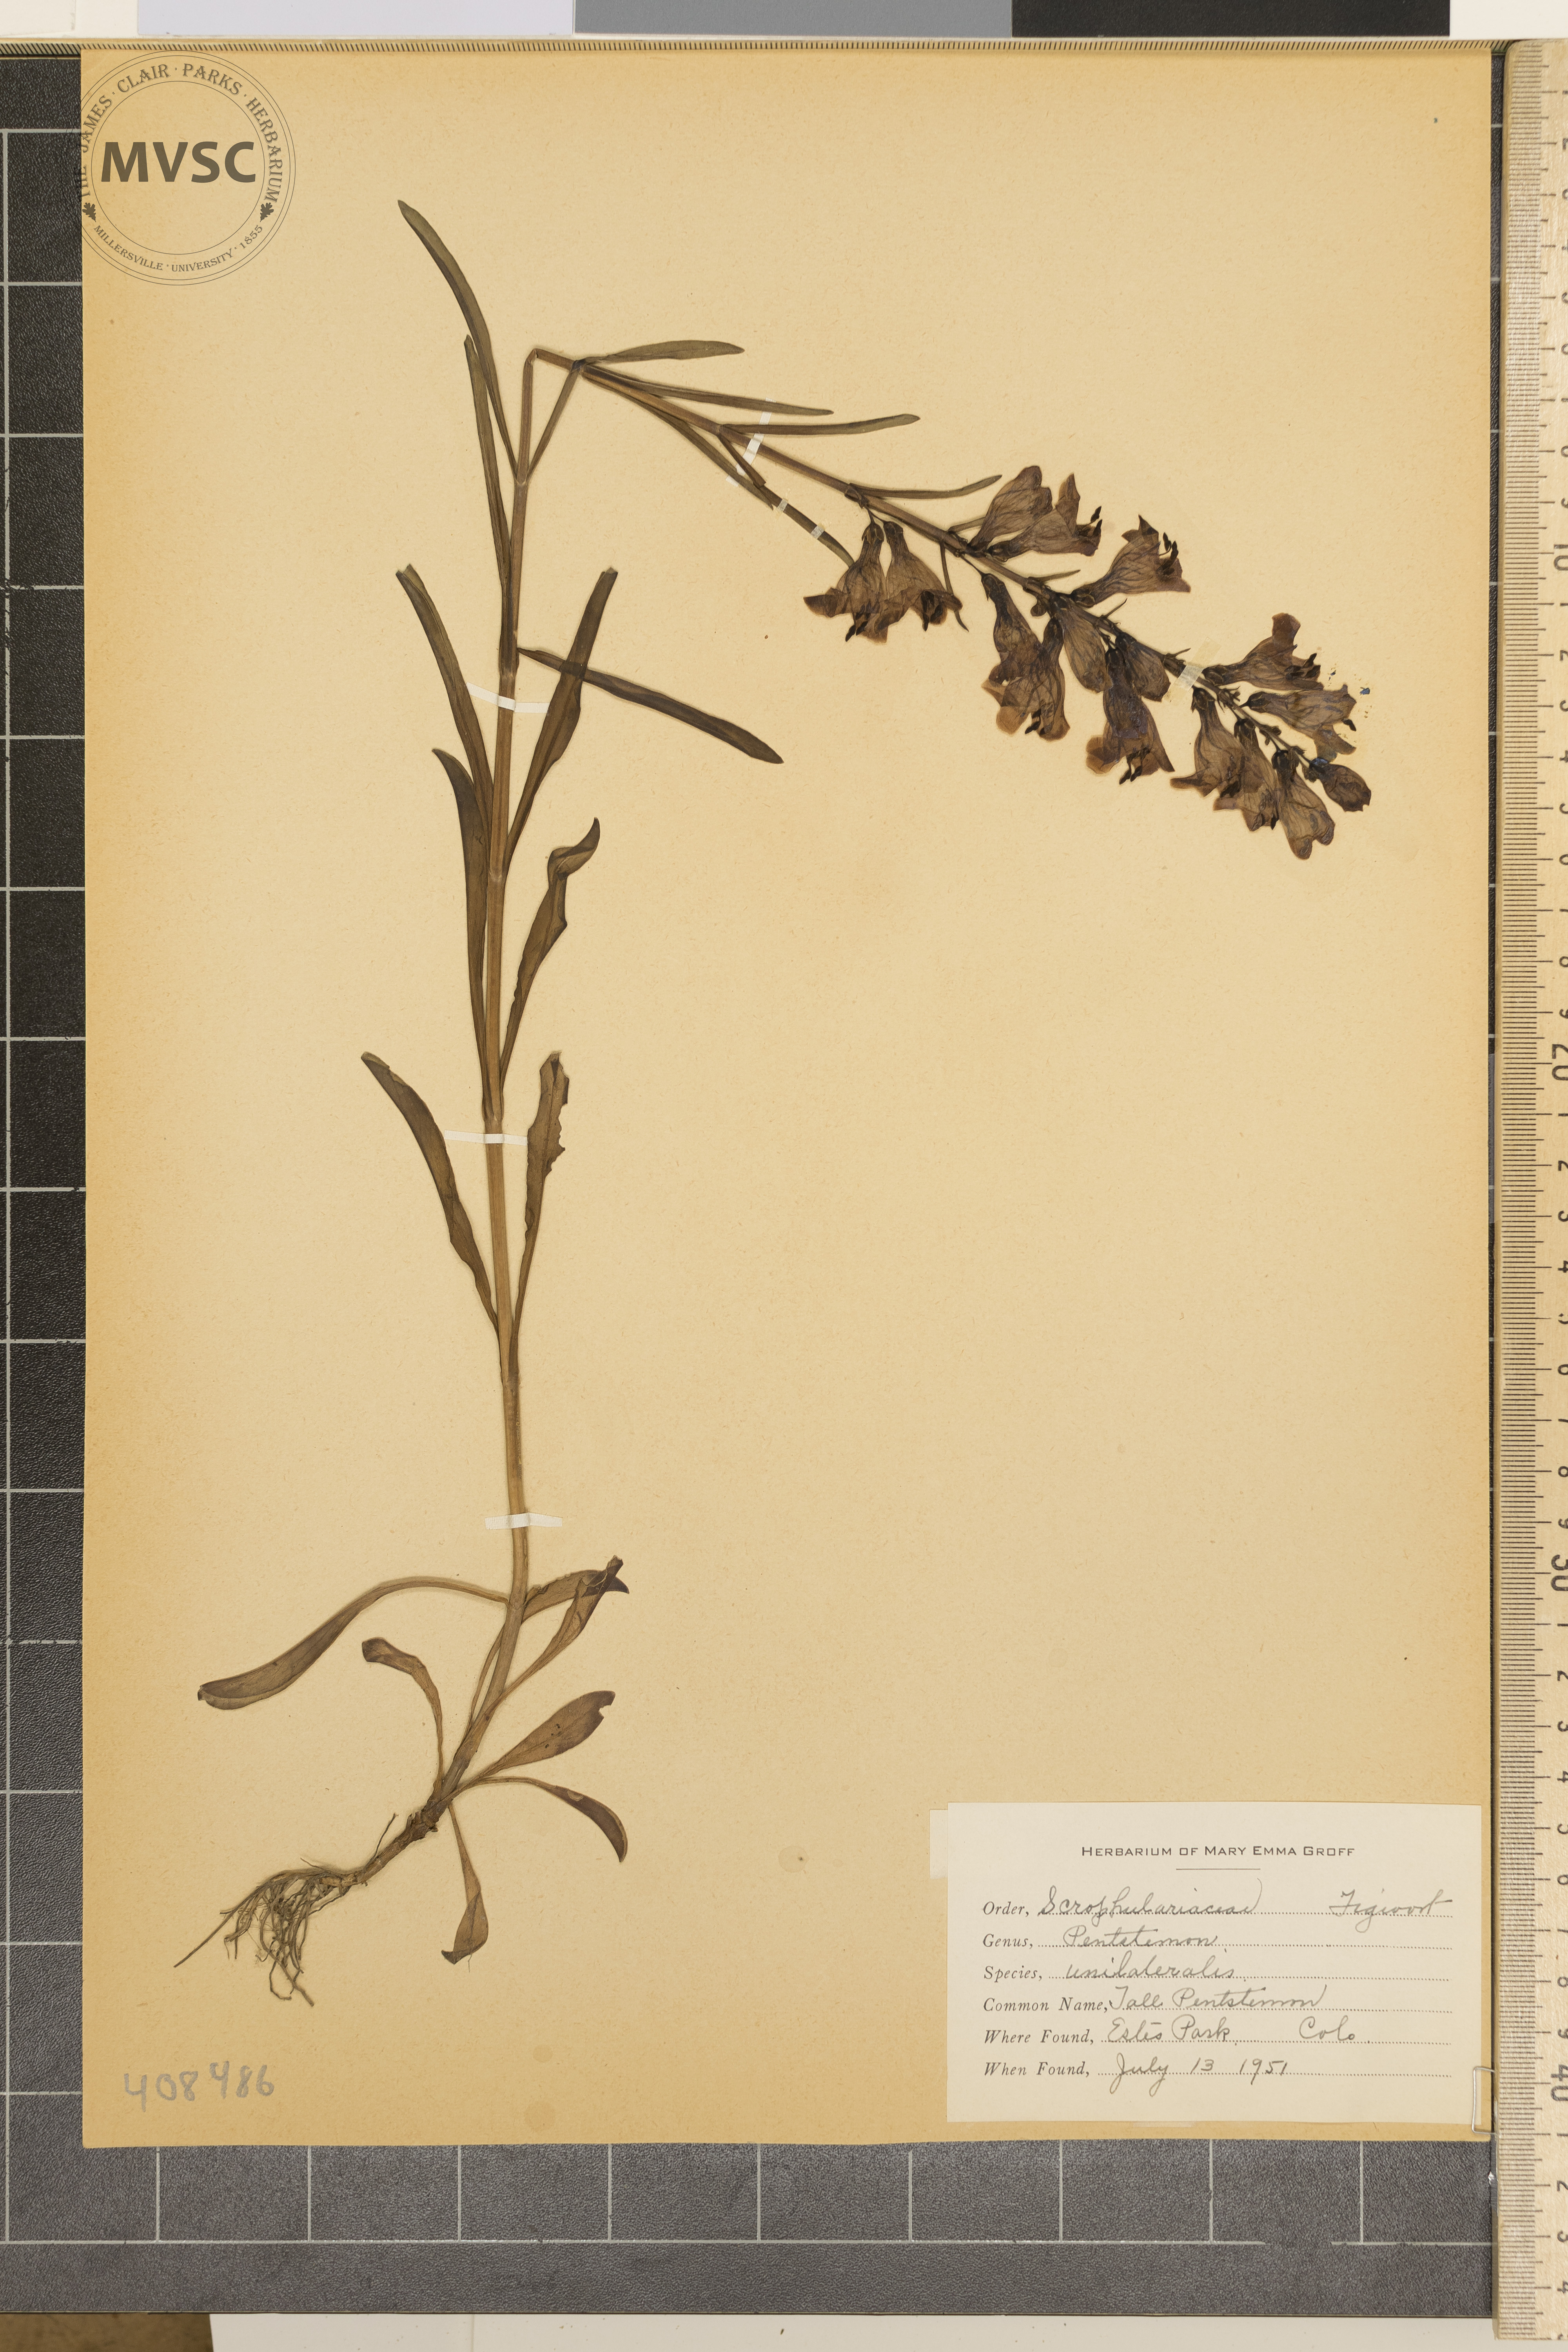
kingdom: Plantae
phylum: Tracheophyta
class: Magnoliopsida
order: Lamiales
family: Plantaginaceae
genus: Penstemon
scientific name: Penstemon unilateralis
